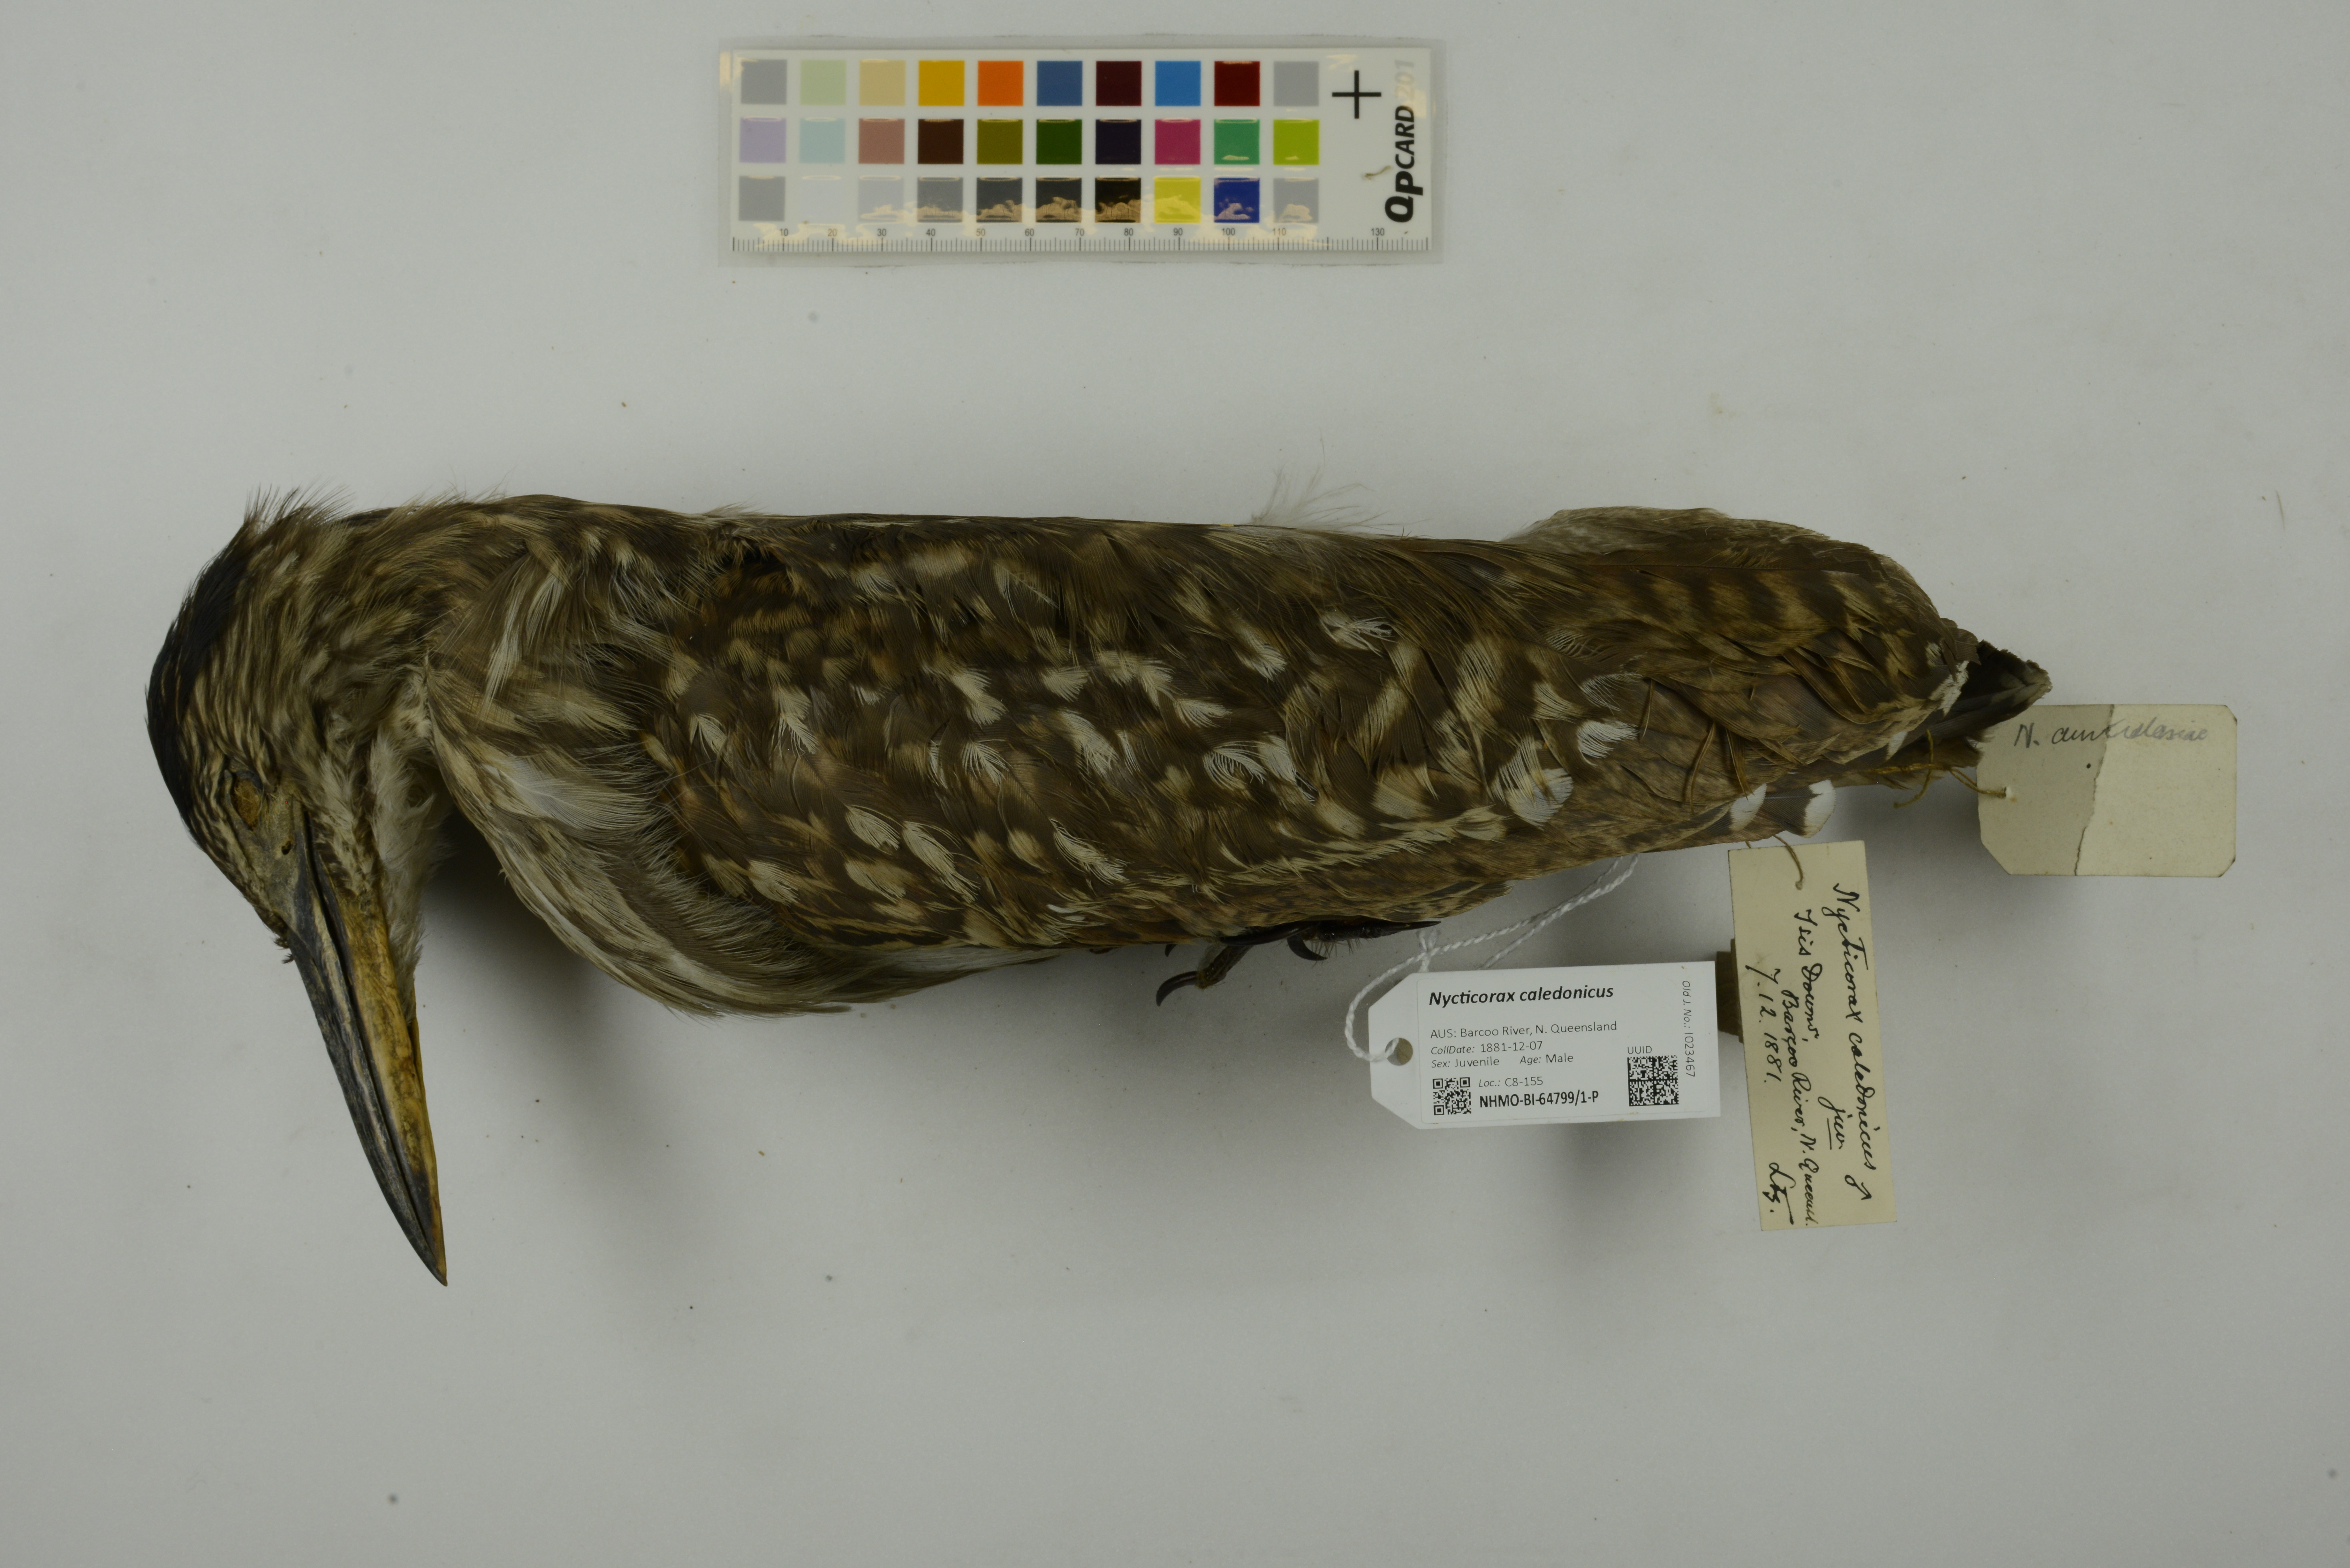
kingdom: Animalia
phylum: Chordata
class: Aves
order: Pelecaniformes
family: Ardeidae
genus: Nycticorax
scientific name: Nycticorax caledonicus
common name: Rufous night-heron
